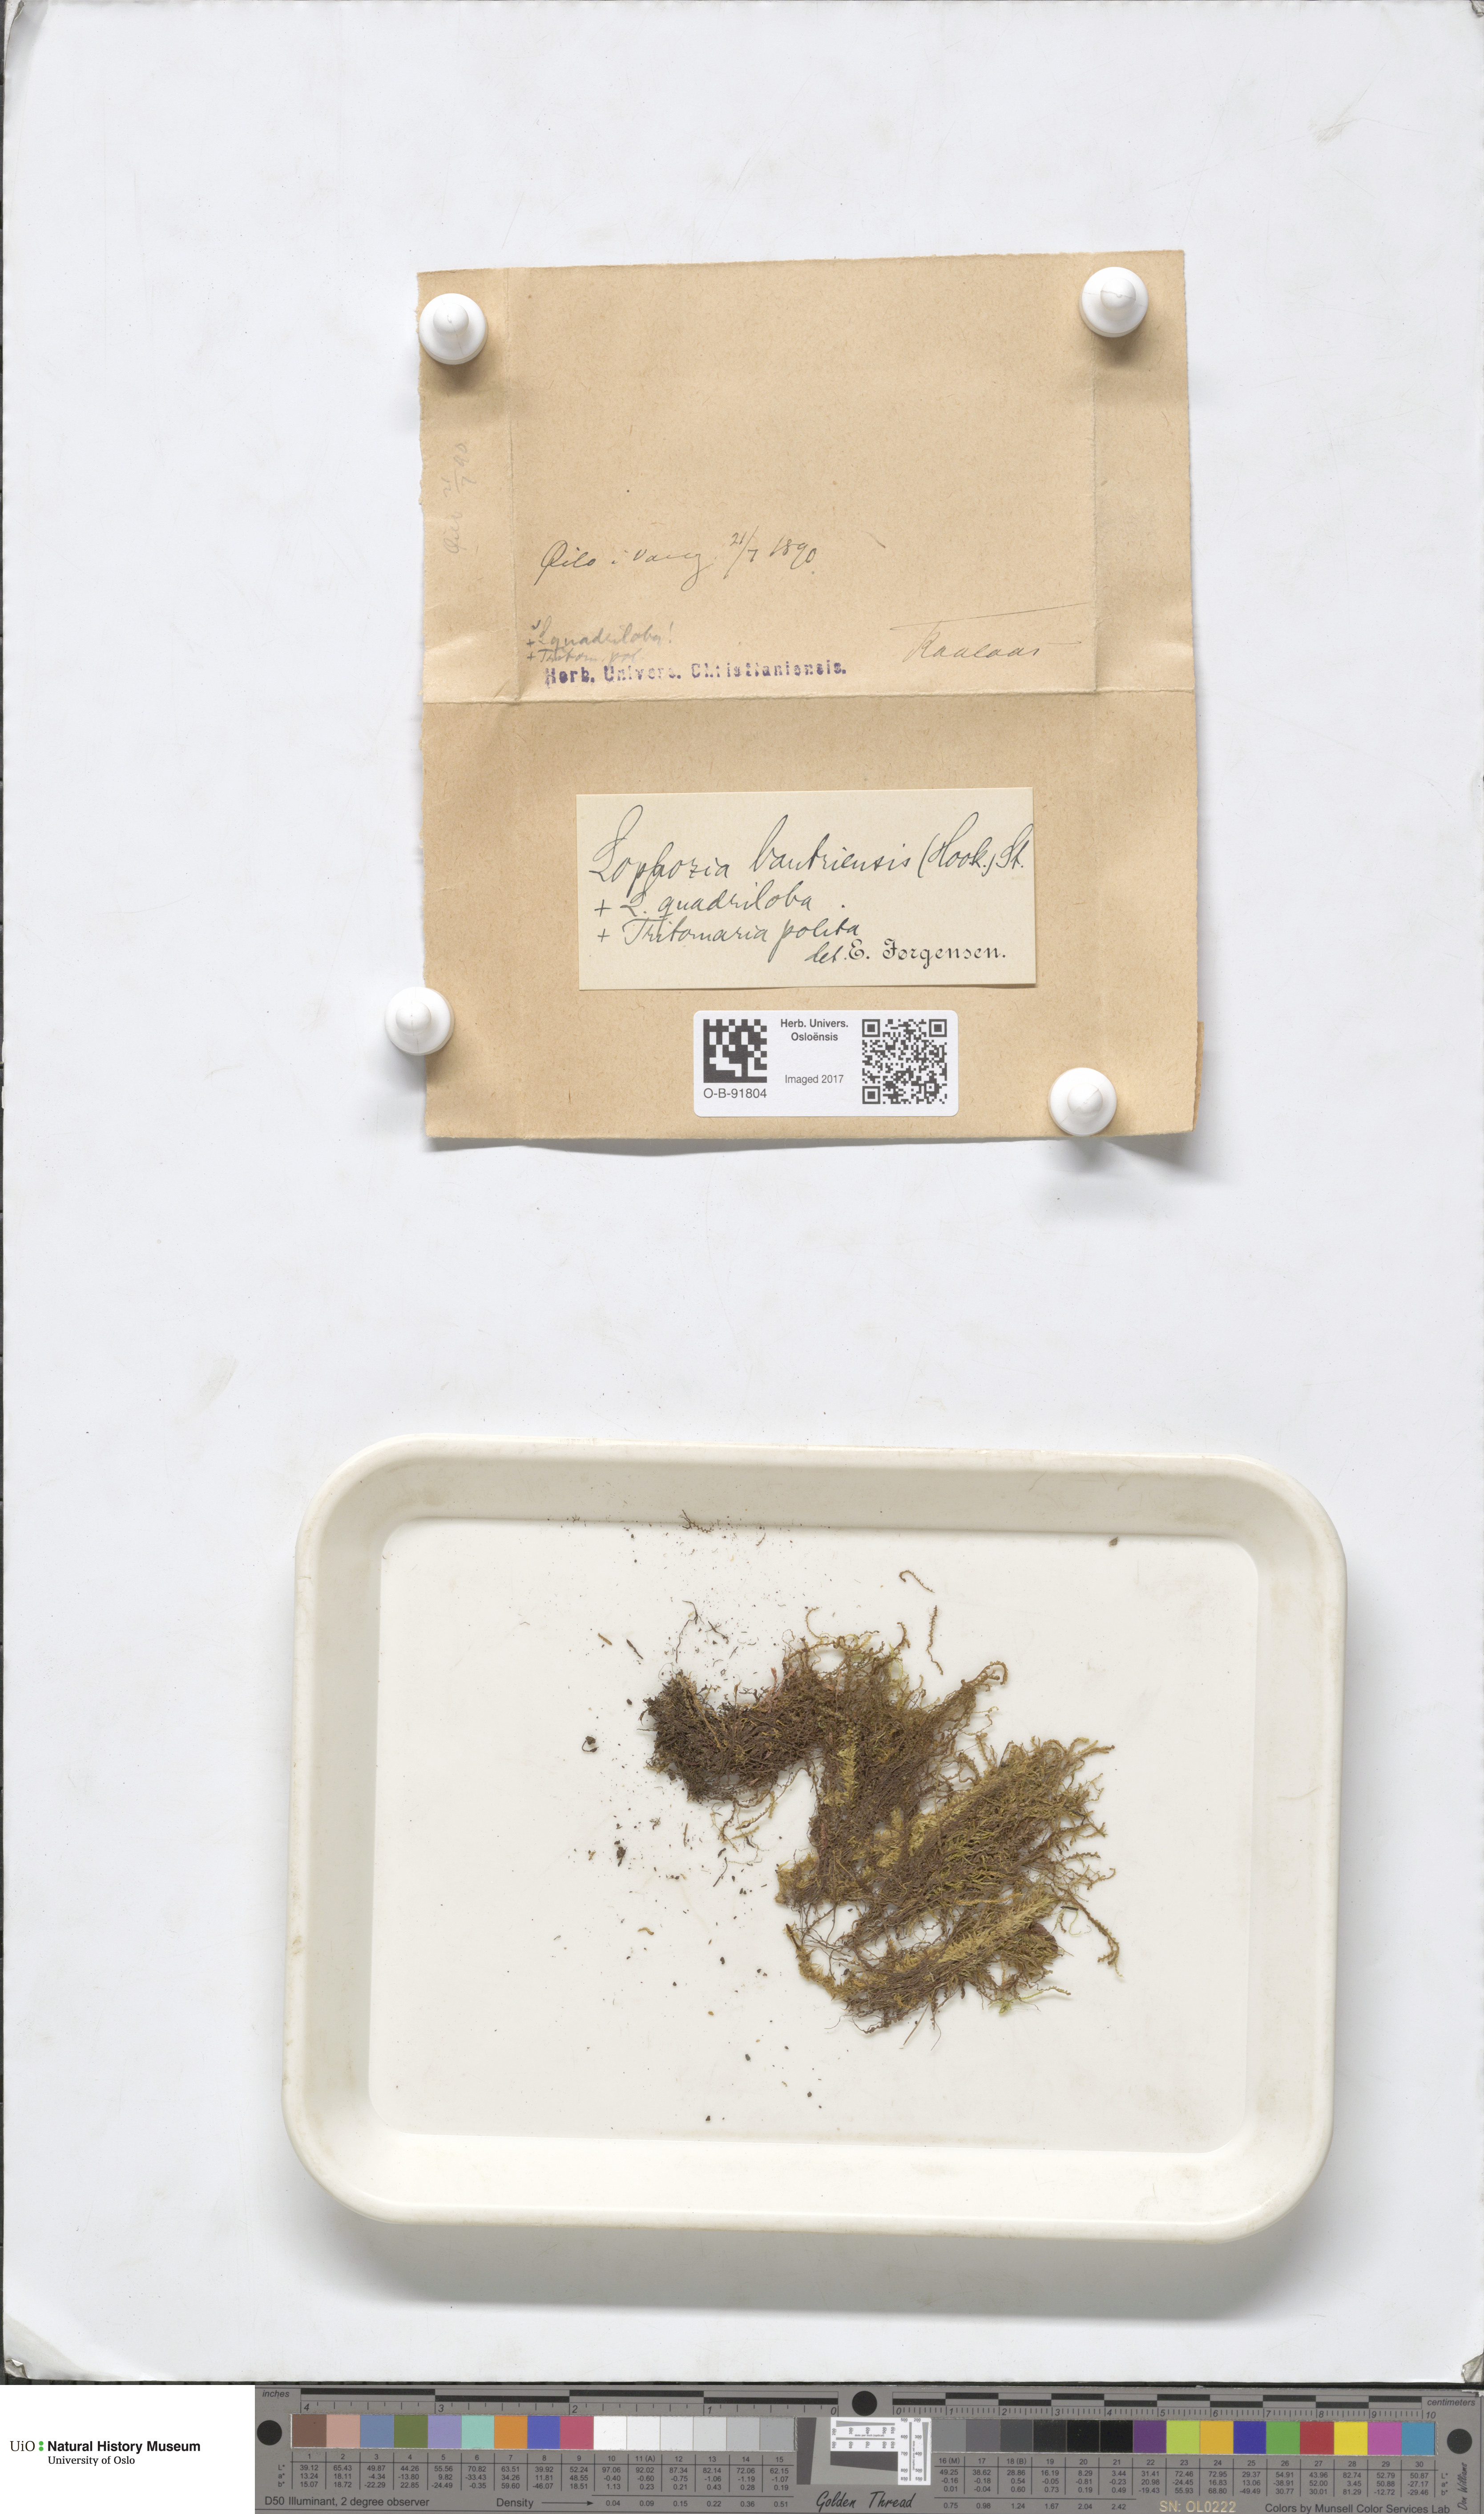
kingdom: Plantae
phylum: Marchantiophyta
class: Jungermanniopsida
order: Jungermanniales
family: Jungermanniaceae
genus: Mesoptychia
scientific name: Mesoptychia bantriensis
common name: Bantry notchwort
